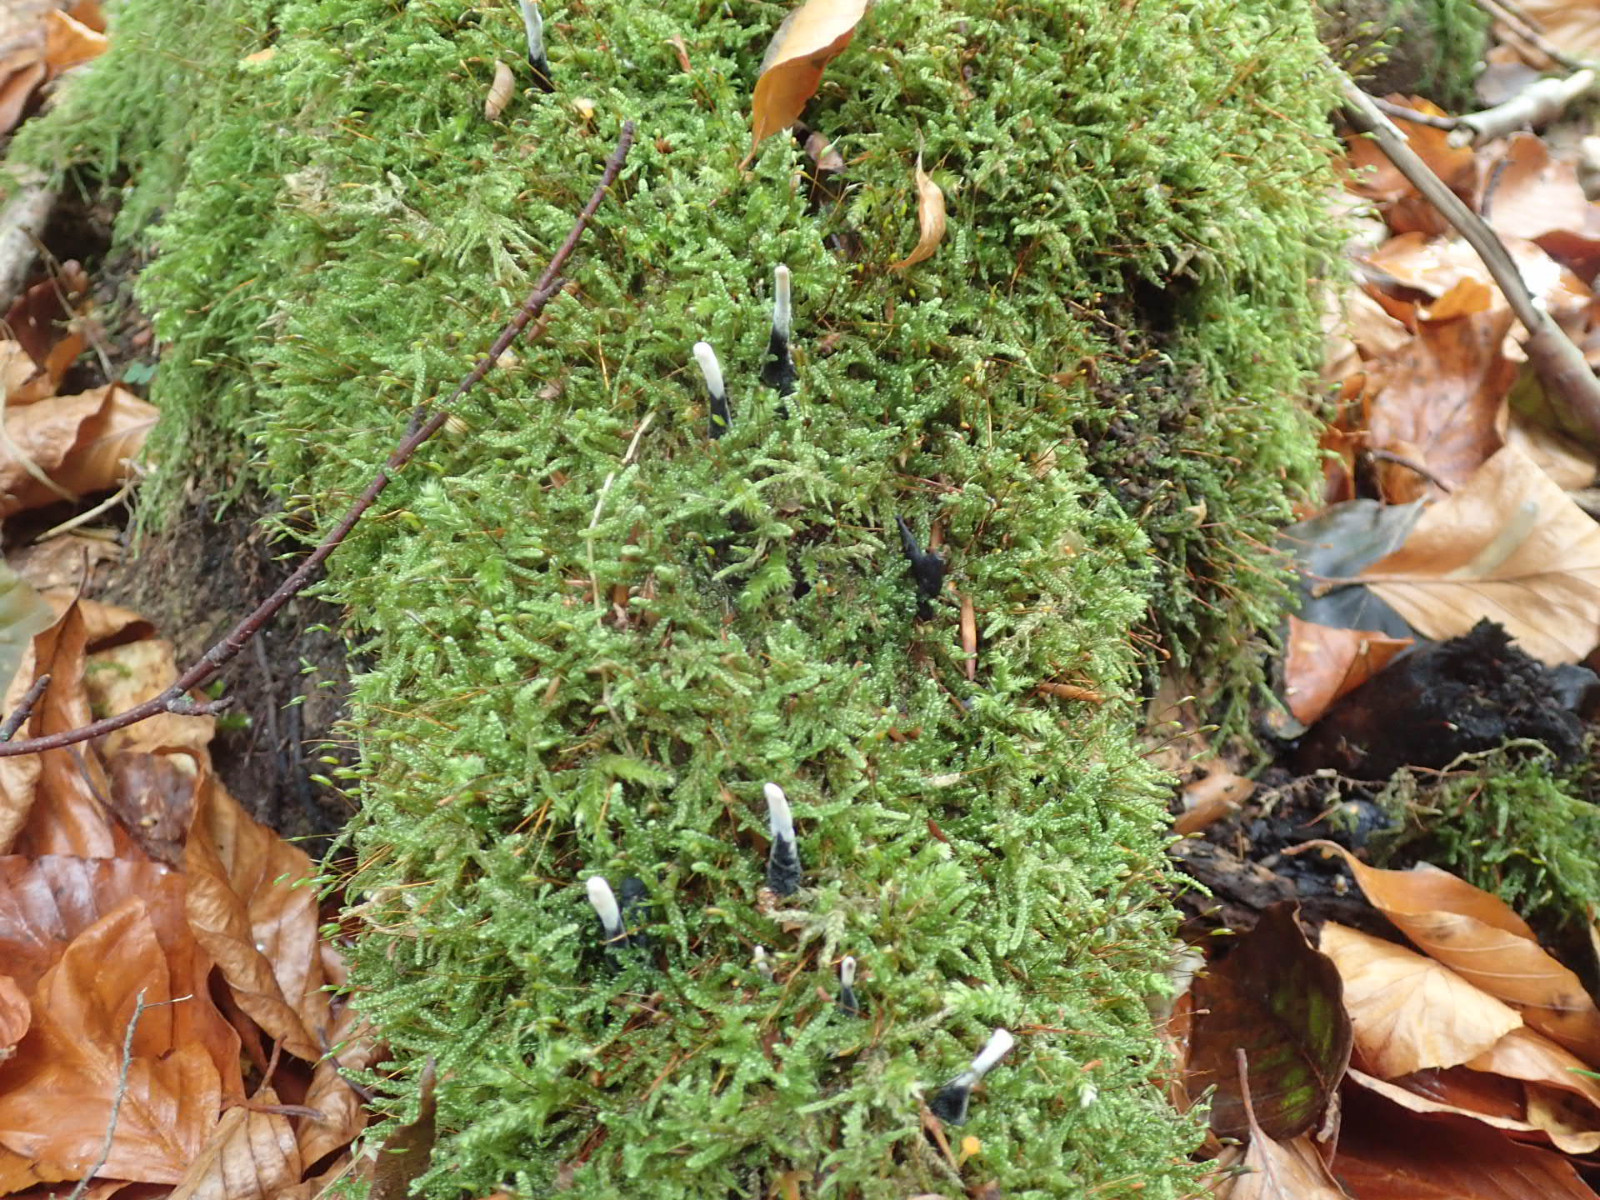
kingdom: Fungi
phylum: Ascomycota
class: Sordariomycetes
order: Xylariales
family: Xylariaceae
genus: Xylaria
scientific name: Xylaria hypoxylon
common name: grenet stødsvamp
